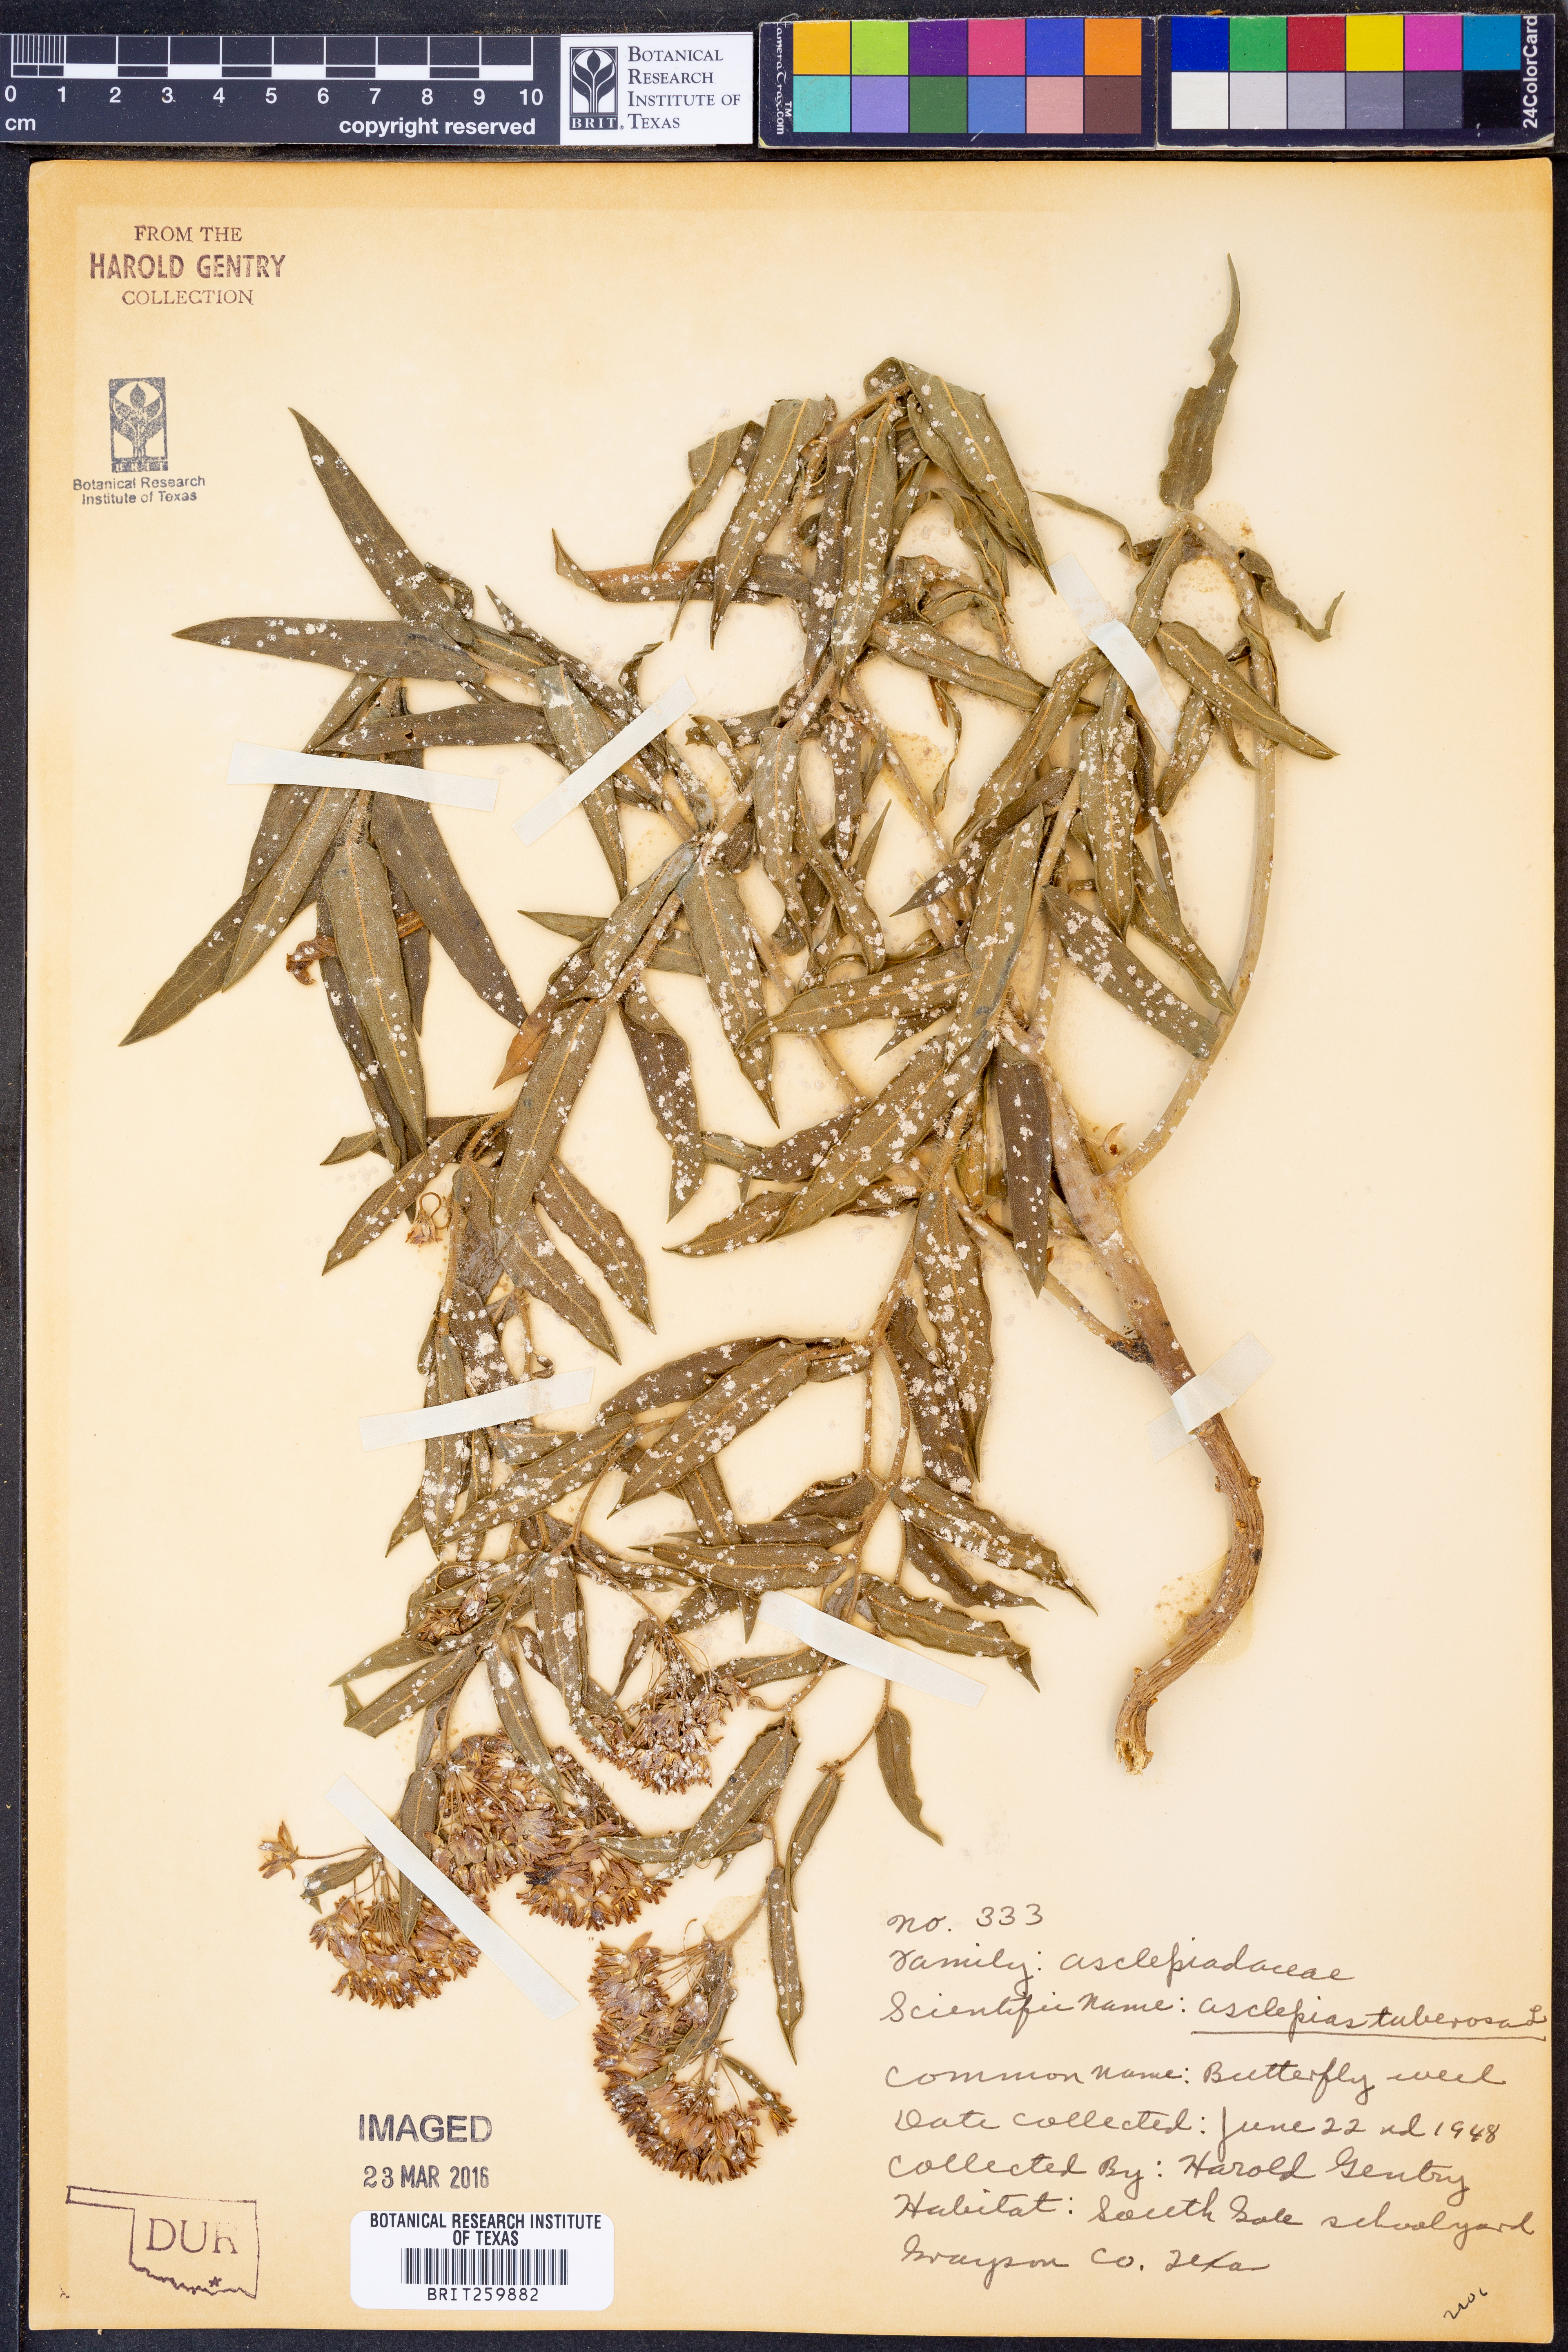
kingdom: Plantae
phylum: Tracheophyta
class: Magnoliopsida
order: Gentianales
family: Apocynaceae
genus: Asclepias
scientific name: Asclepias tuberosa
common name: Butterfly milkweed
